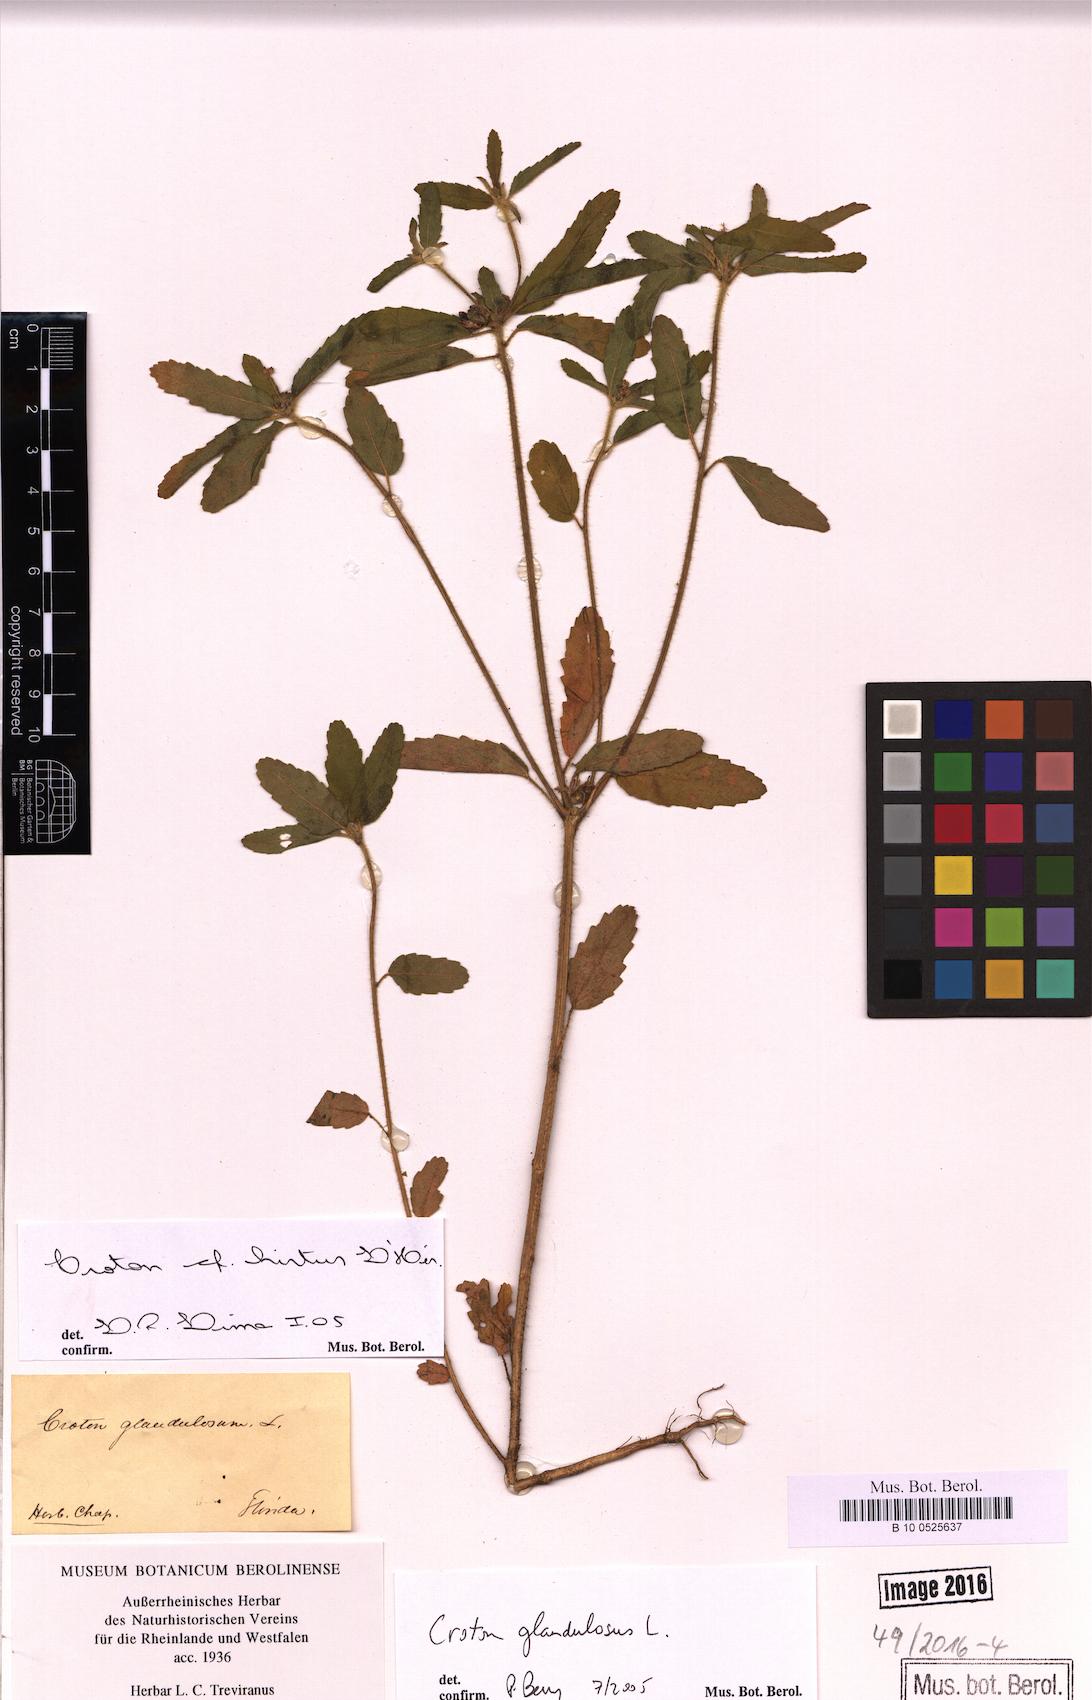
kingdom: Plantae
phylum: Tracheophyta
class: Magnoliopsida
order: Malpighiales
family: Euphorbiaceae
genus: Croton
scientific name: Croton glandulosus
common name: Tropic croton
